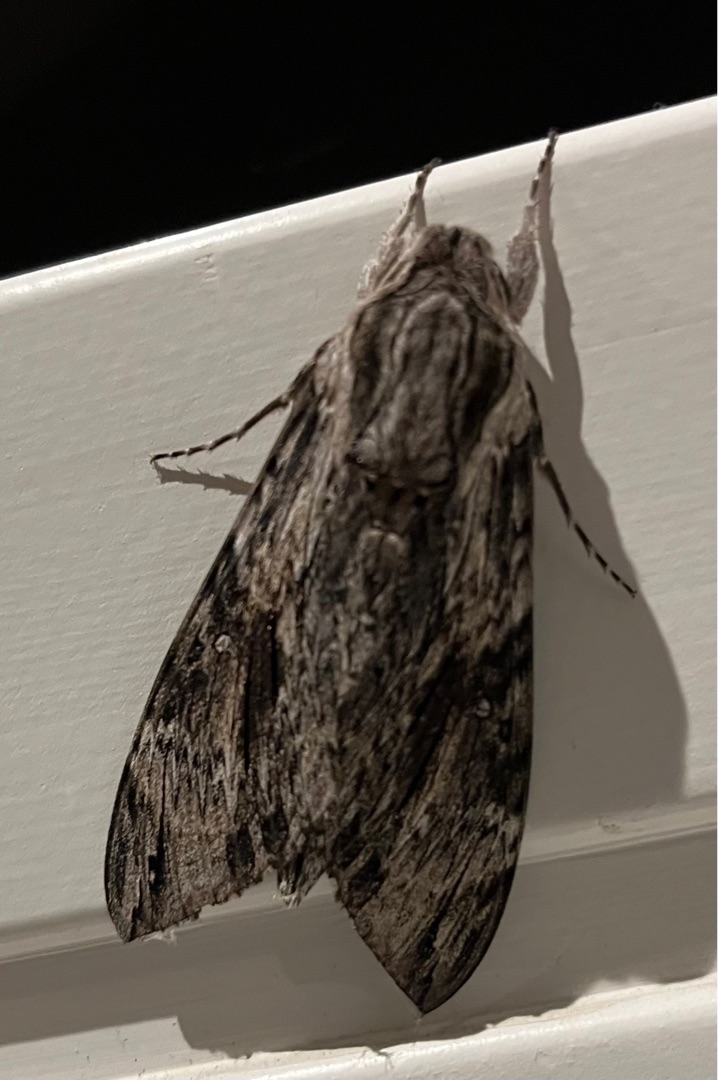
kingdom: Animalia
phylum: Arthropoda
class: Insecta
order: Lepidoptera
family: Sphingidae
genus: Agrius
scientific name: Agrius convolvuli
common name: Snerlesværmer
